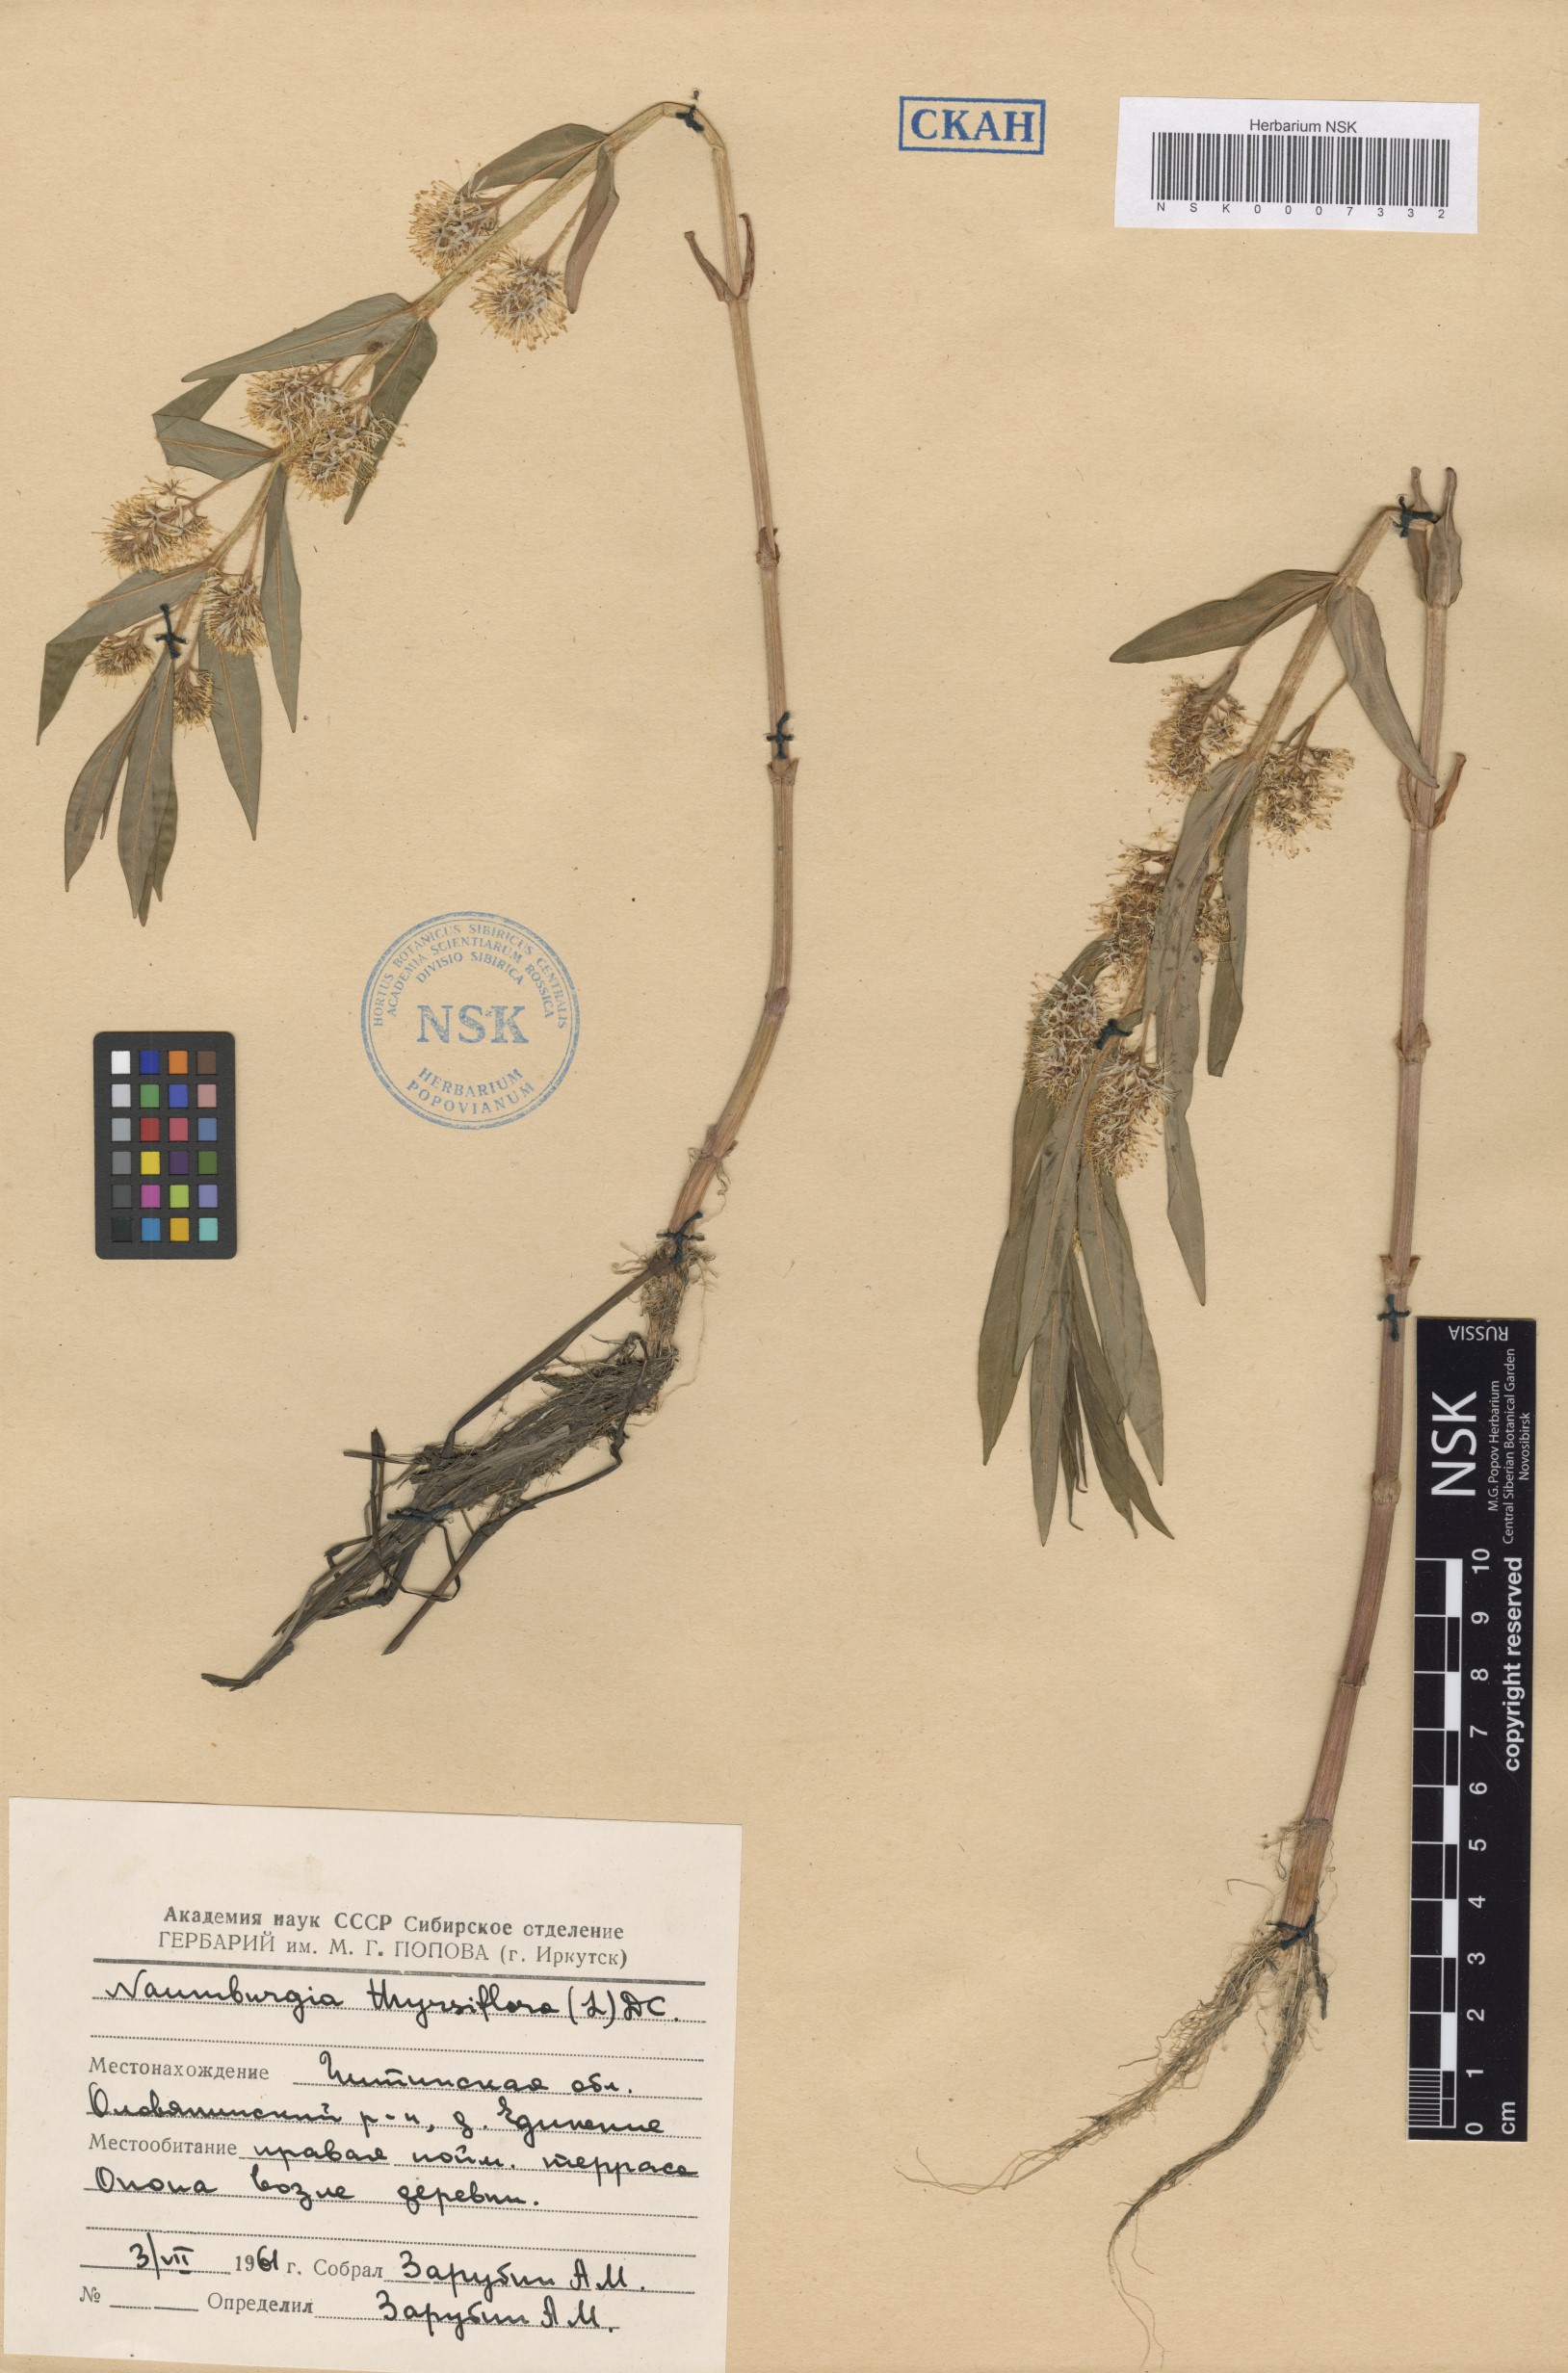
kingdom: Plantae
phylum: Tracheophyta
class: Magnoliopsida
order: Ericales
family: Primulaceae
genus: Lysimachia
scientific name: Lysimachia thyrsiflora
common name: Tufted loosestrife
